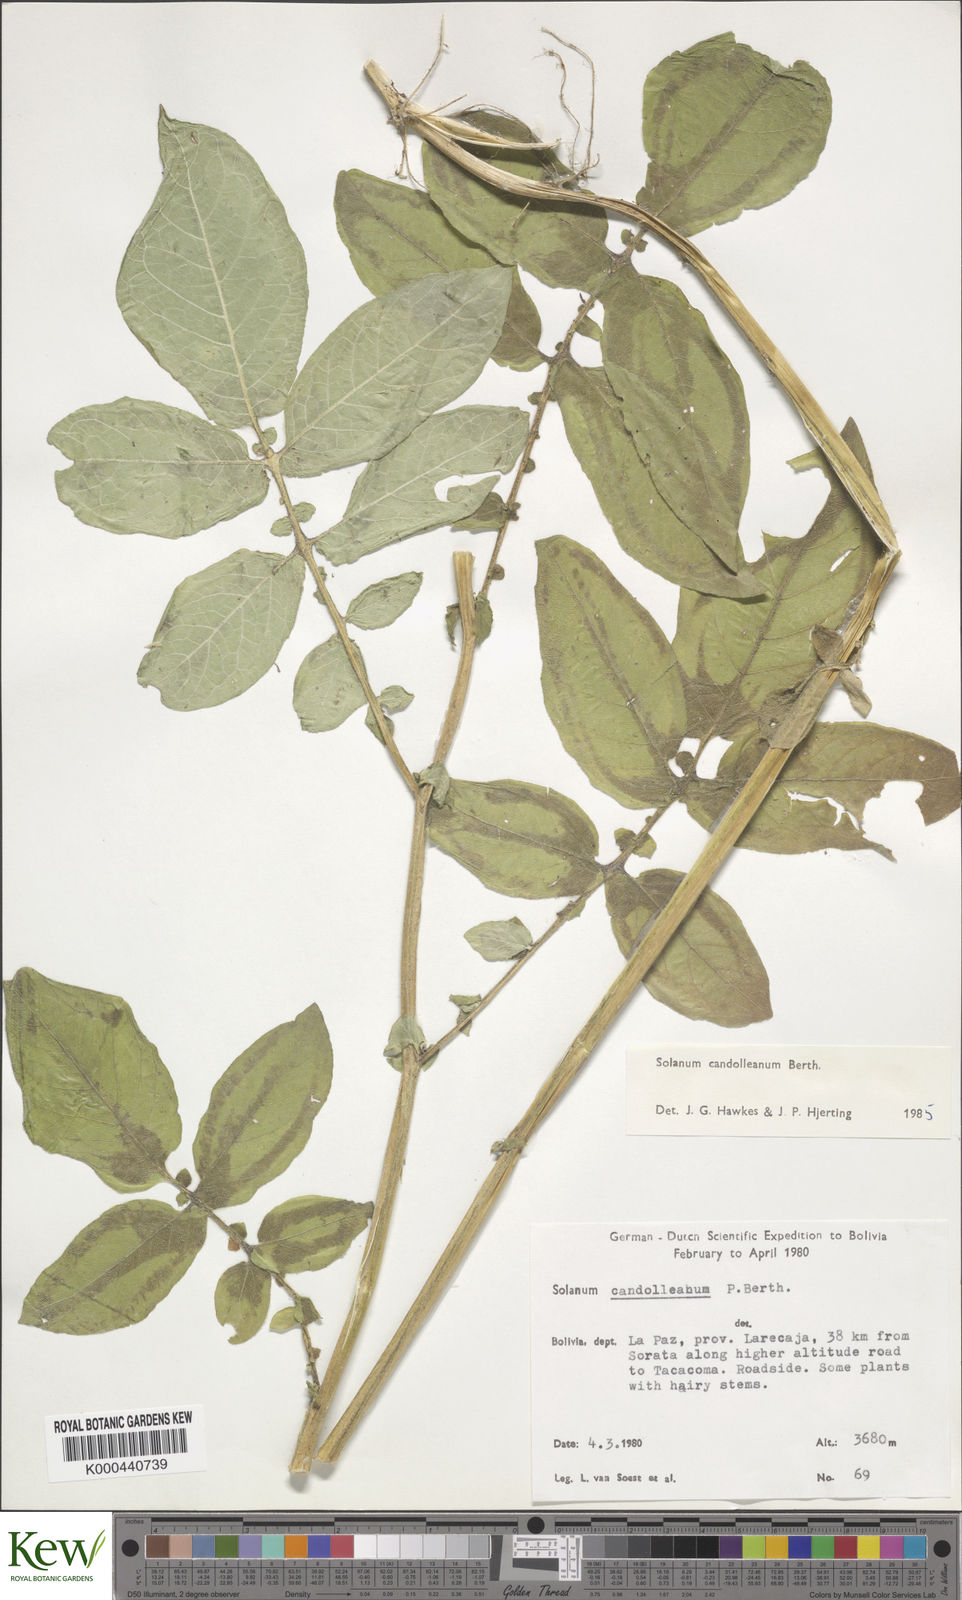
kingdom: Plantae
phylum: Tracheophyta
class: Magnoliopsida
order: Solanales
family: Solanaceae
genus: Solanum
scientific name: Solanum brevicaule
